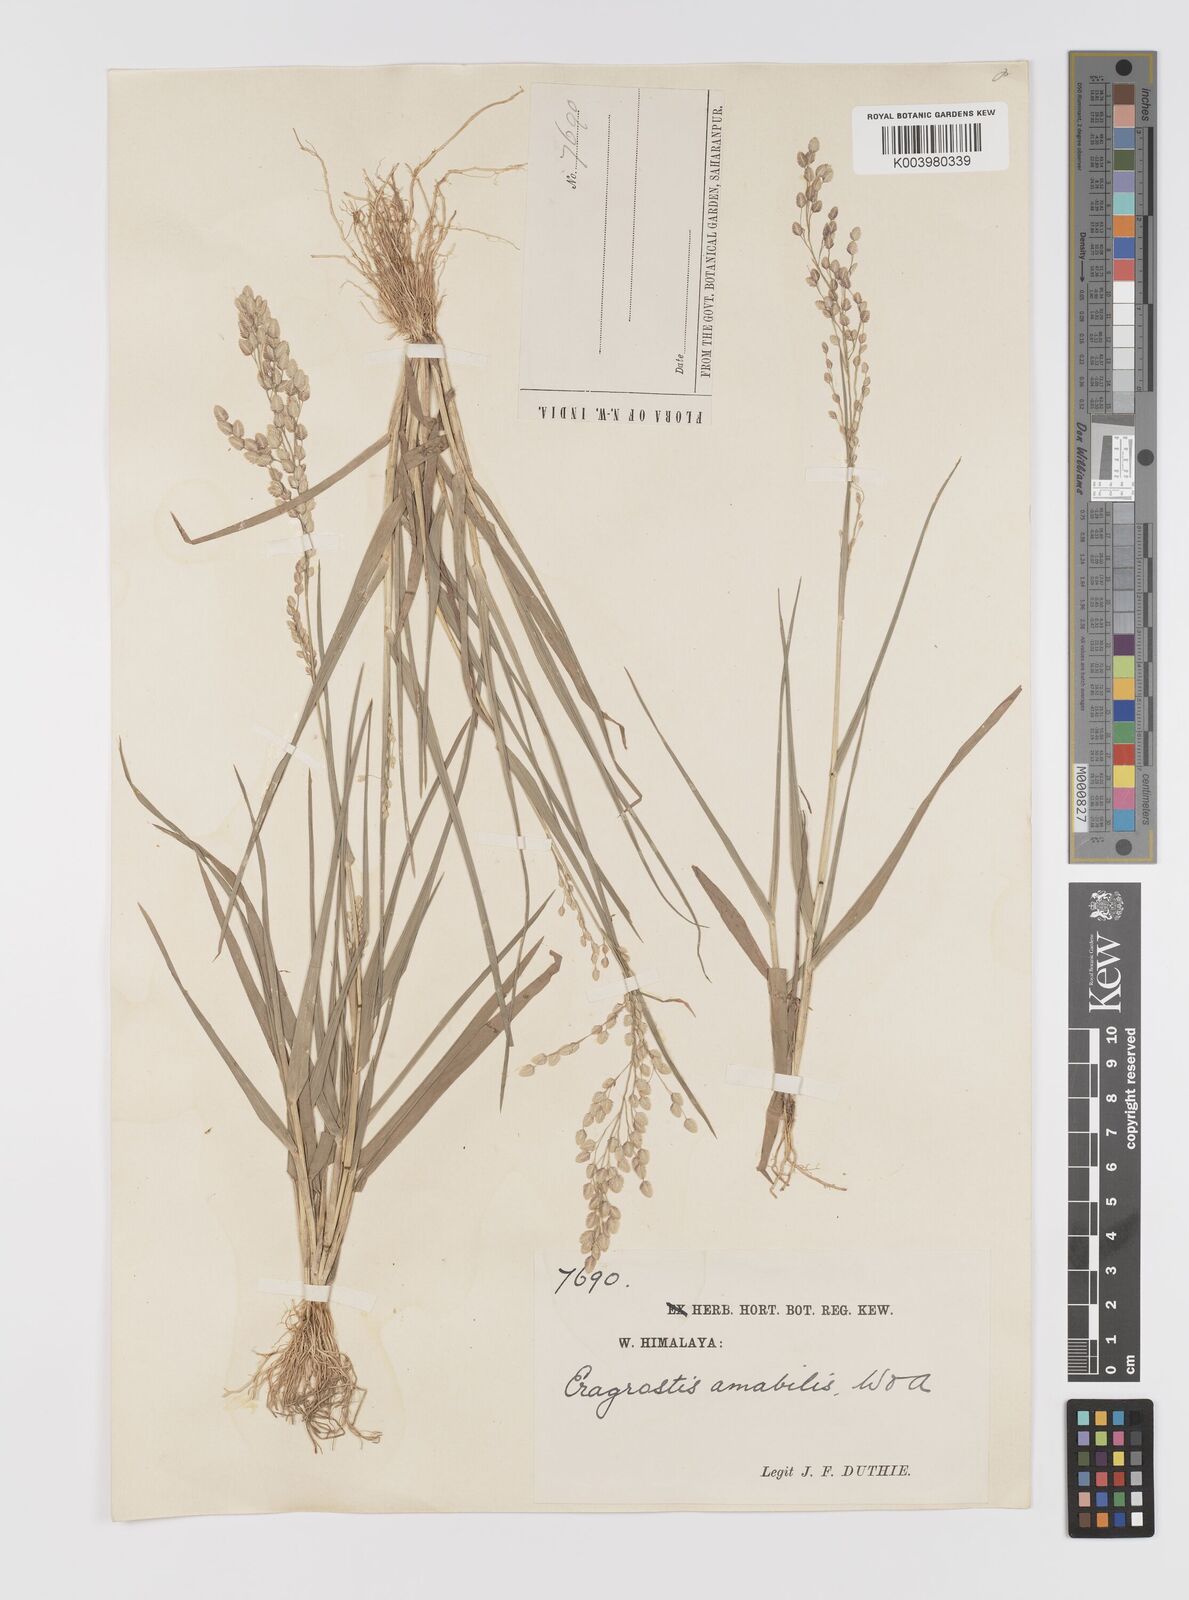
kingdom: Plantae
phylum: Tracheophyta
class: Liliopsida
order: Poales
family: Poaceae
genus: Eragrostis
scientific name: Eragrostis unioloides
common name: Chinese lovegrass
